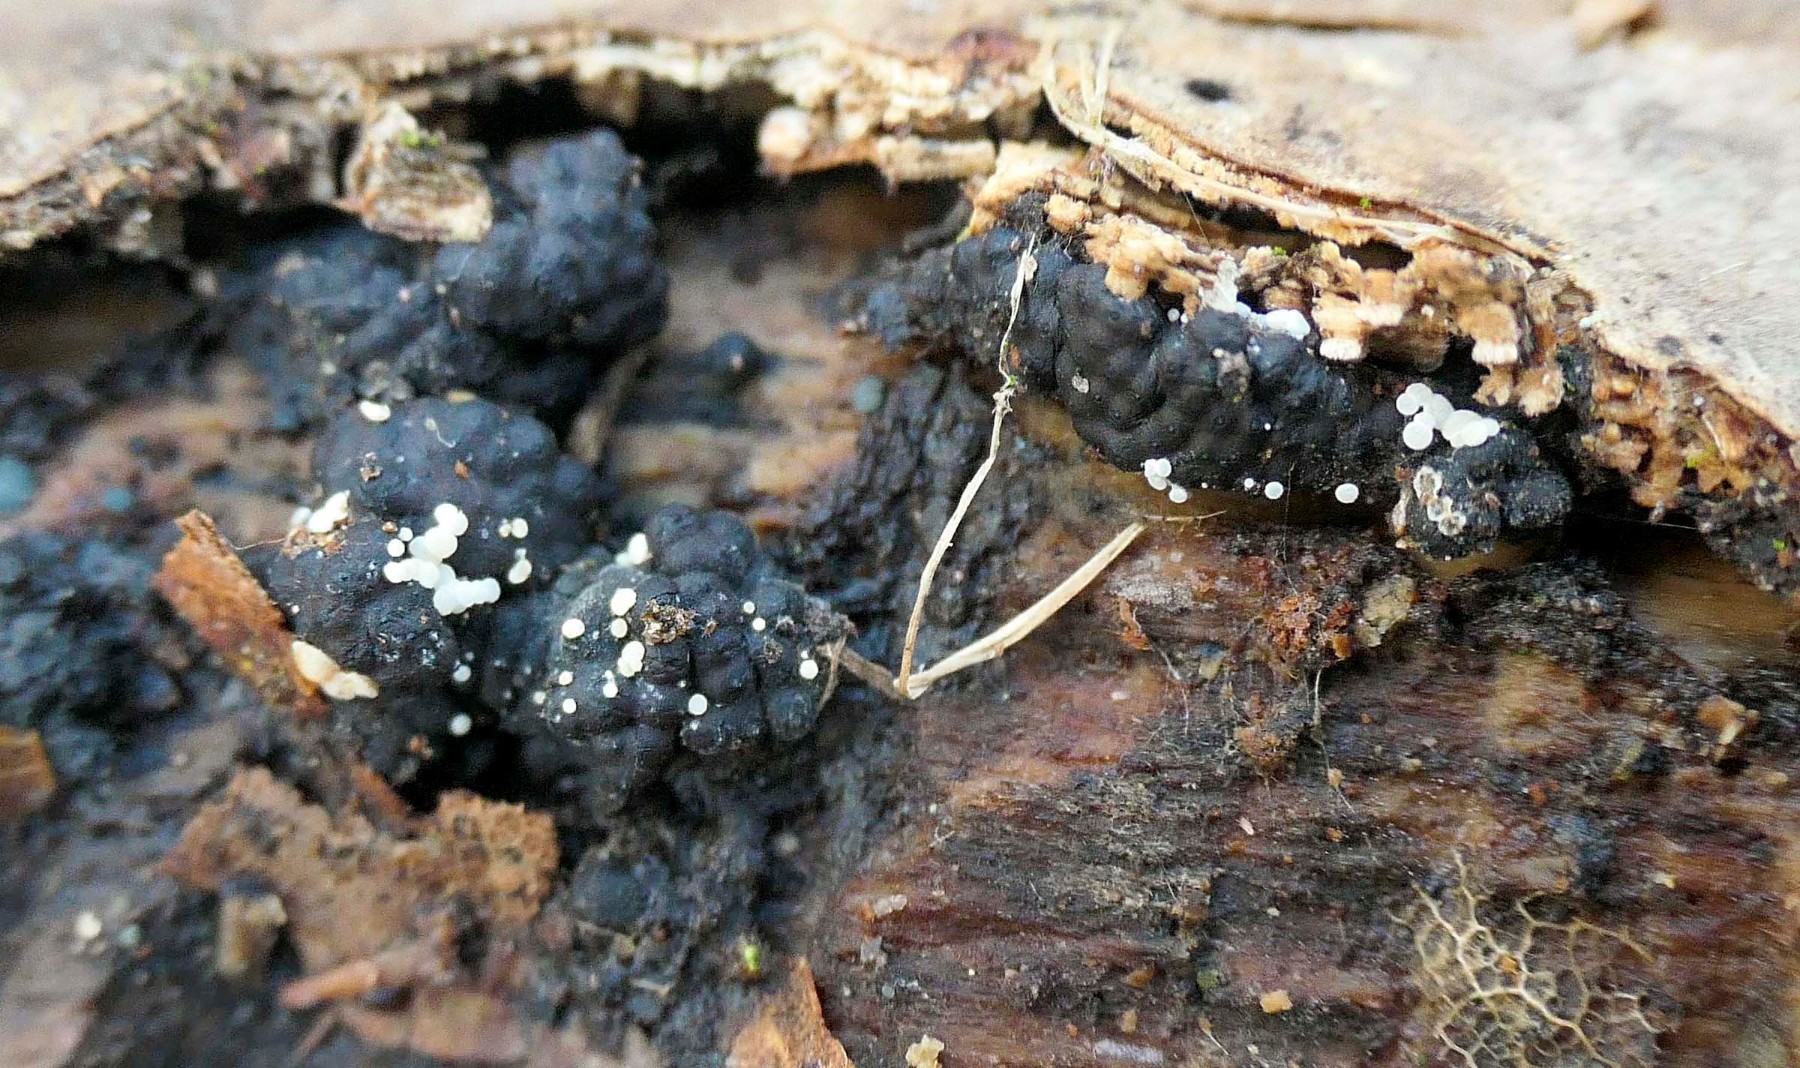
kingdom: Fungi
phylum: Ascomycota
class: Leotiomycetes
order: Helotiales
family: Hyaloscyphaceae
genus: Polydesmia
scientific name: Polydesmia pruinosa
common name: dunskive
